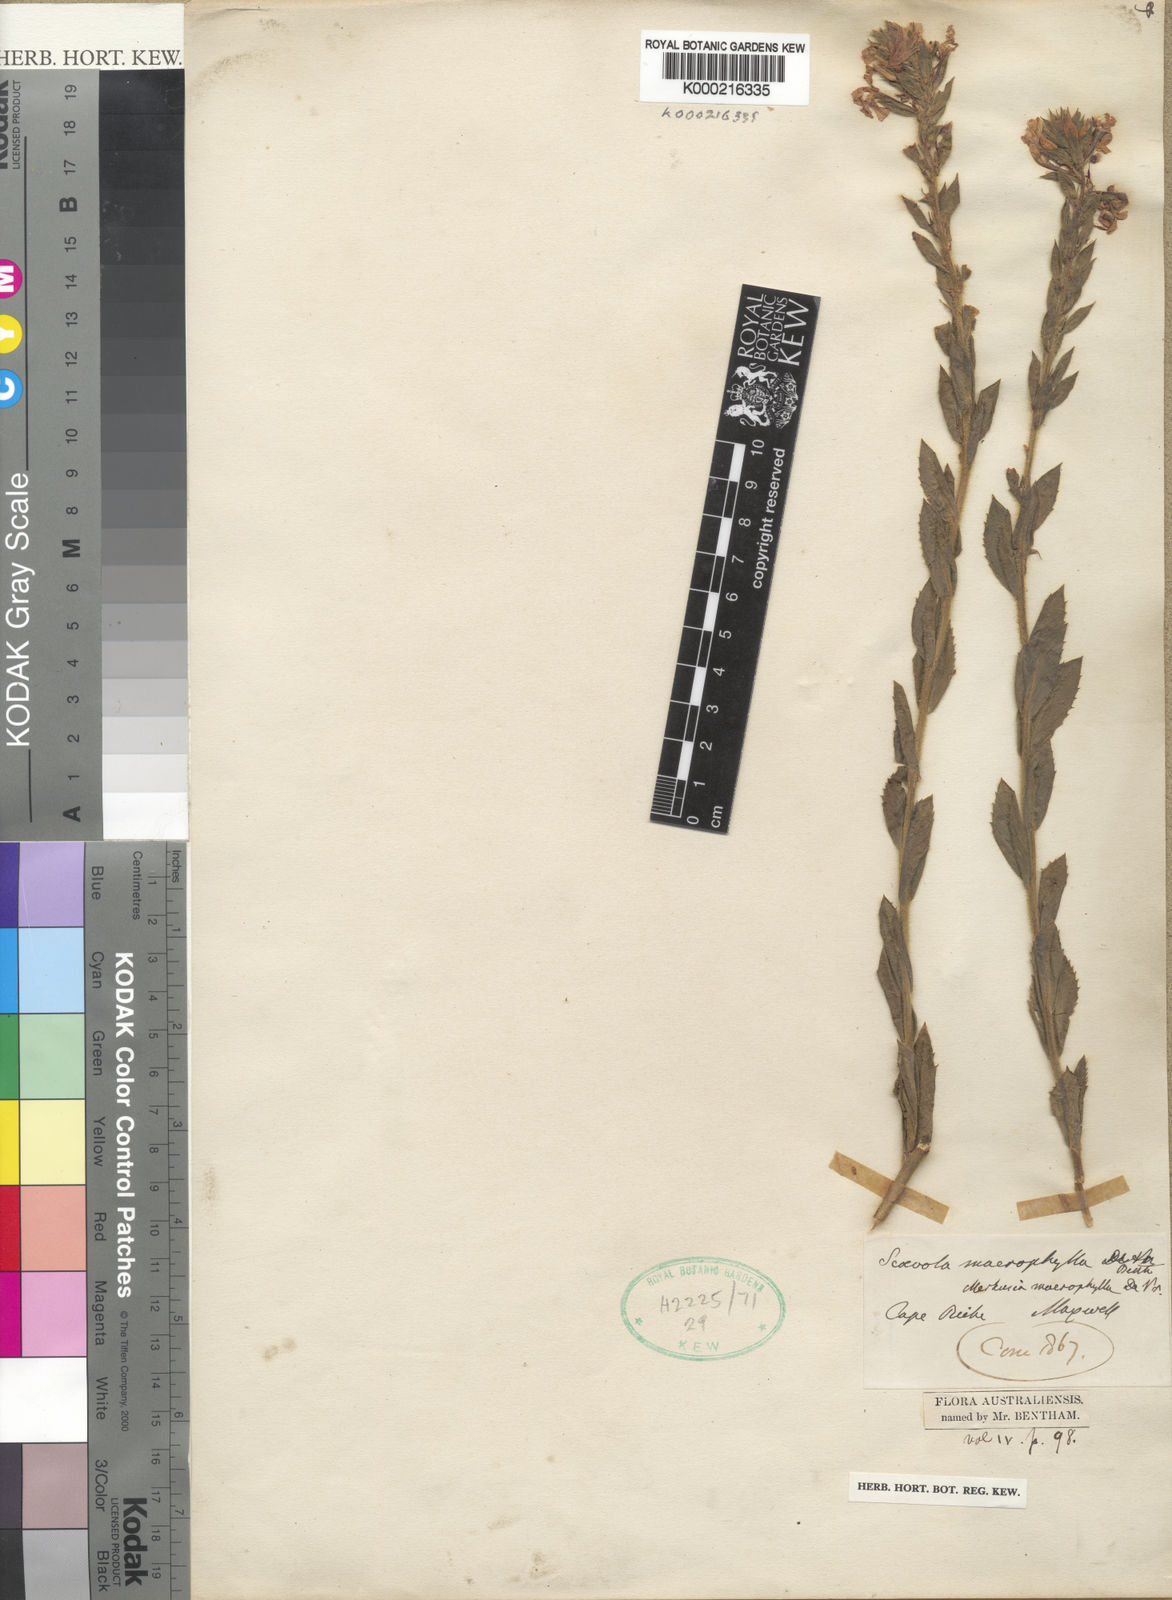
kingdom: Plantae
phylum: Tracheophyta
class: Magnoliopsida
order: Asterales
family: Goodeniaceae
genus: Scaevola
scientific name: Scaevola macrophylla
